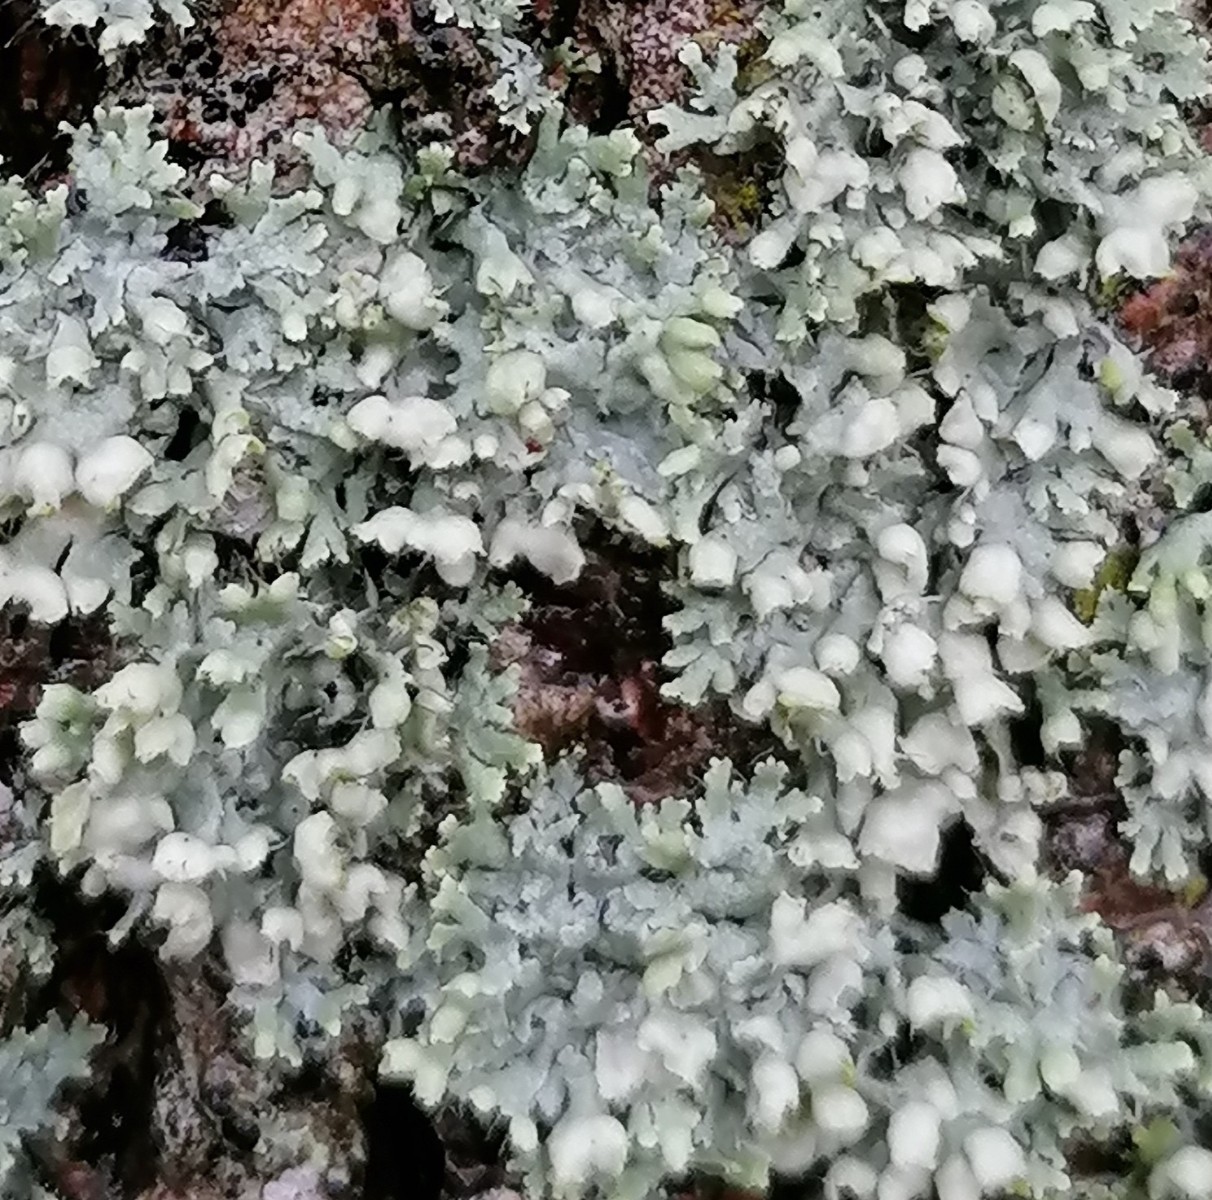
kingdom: Fungi
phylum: Ascomycota
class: Lecanoromycetes
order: Caliciales
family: Physciaceae
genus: Physcia
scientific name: Physcia adscendens
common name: hætte-rosetlav
